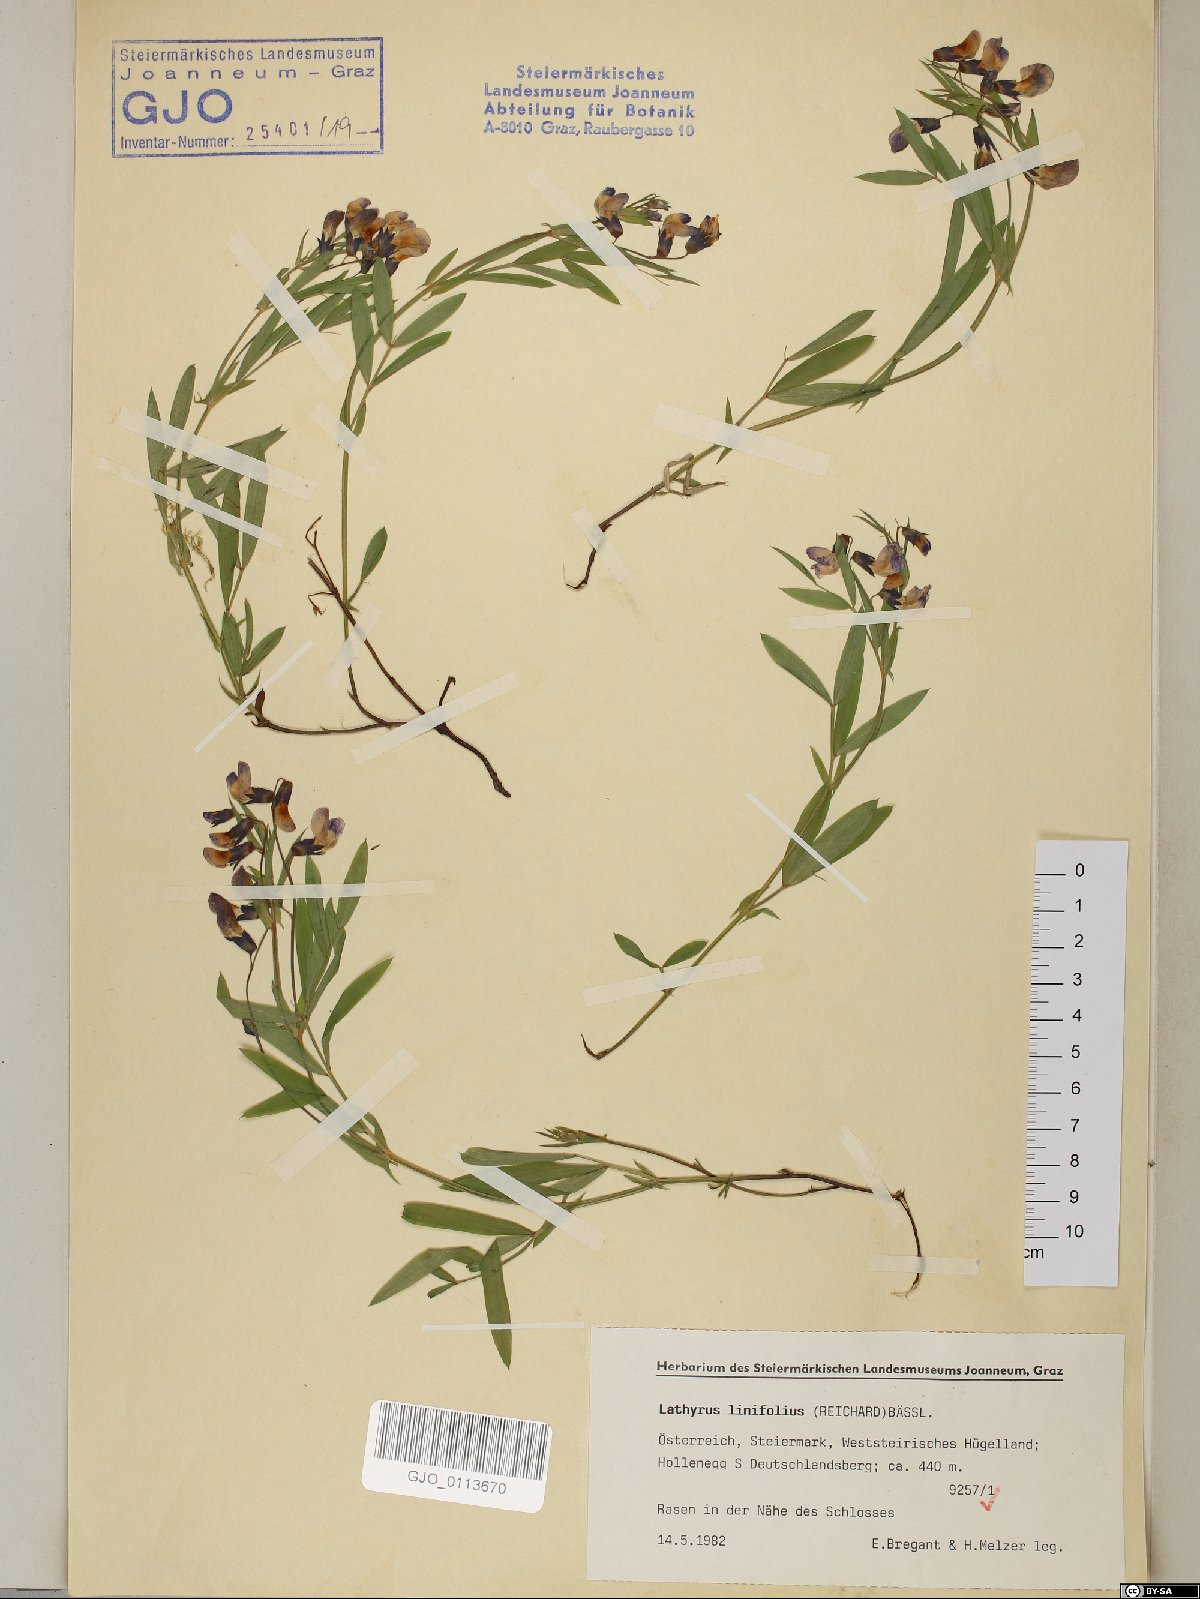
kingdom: Plantae
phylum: Tracheophyta
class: Magnoliopsida
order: Fabales
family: Fabaceae
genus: Lathyrus
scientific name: Lathyrus linifolius
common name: Bitter-vetch
